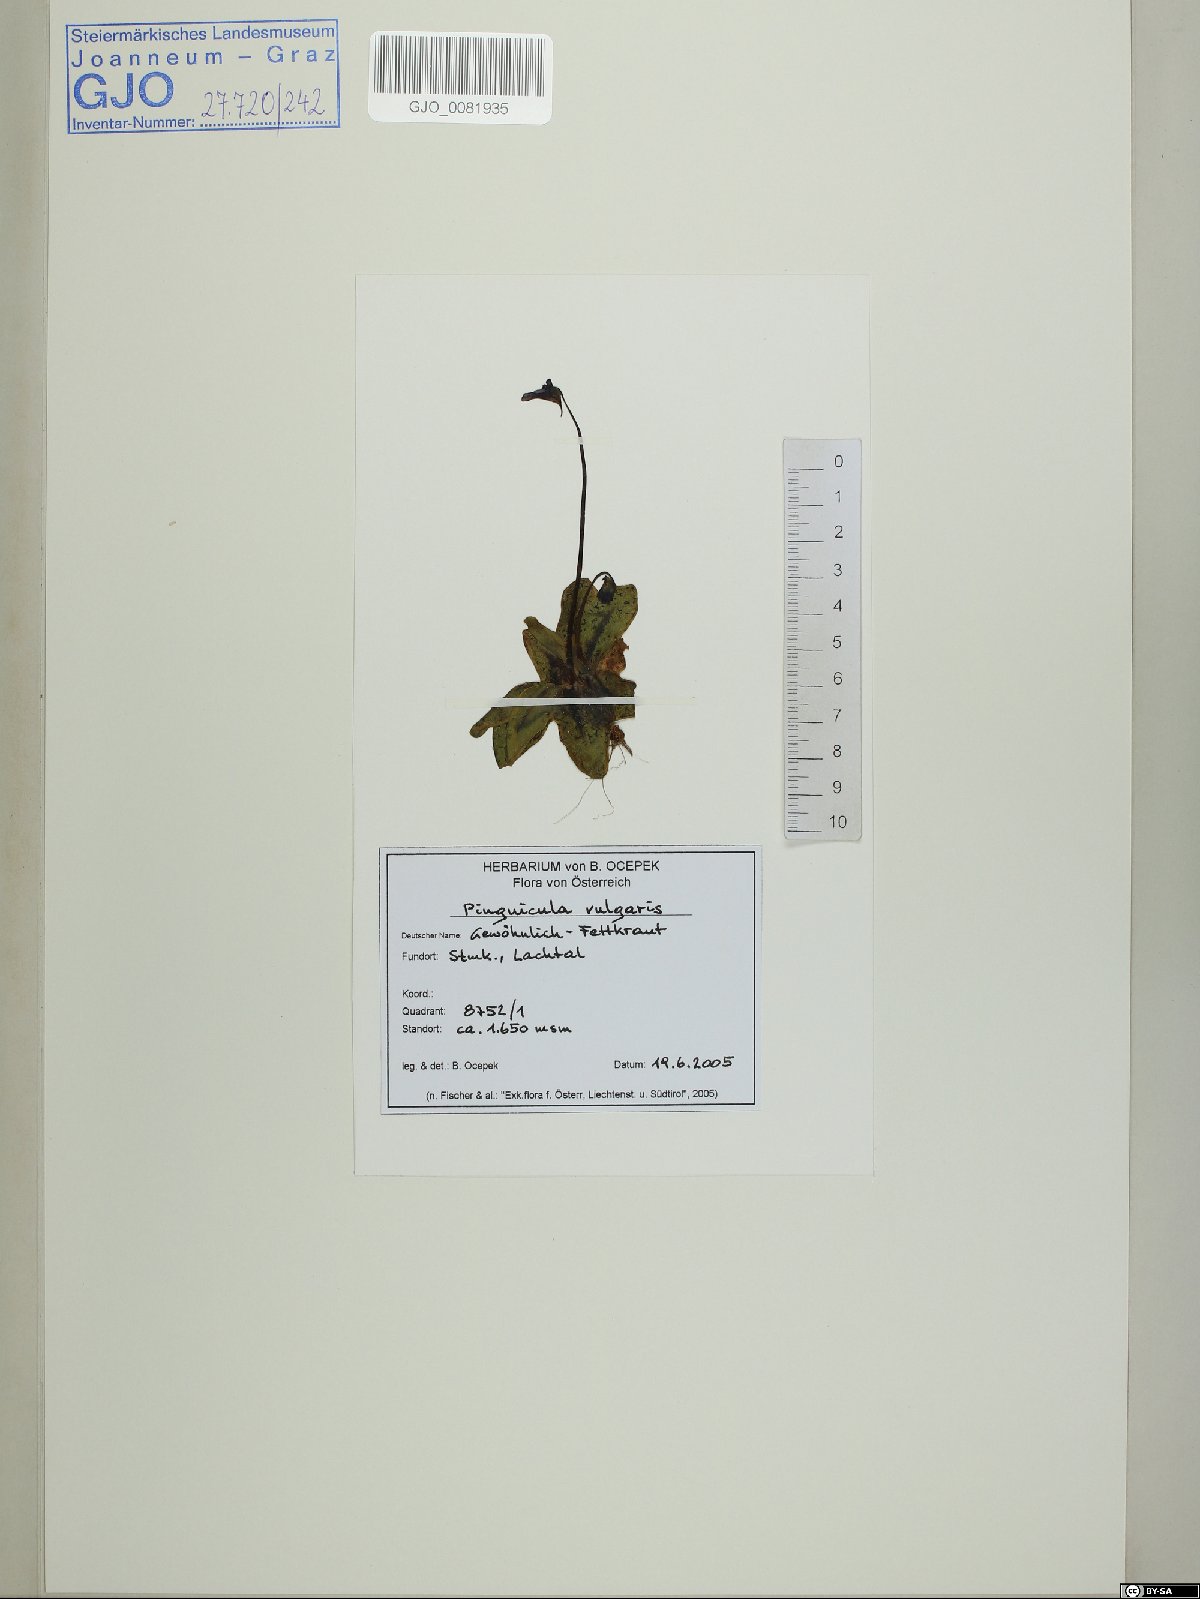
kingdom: Plantae
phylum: Tracheophyta
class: Magnoliopsida
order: Lamiales
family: Lentibulariaceae
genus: Pinguicula
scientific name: Pinguicula vulgaris
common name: Common butterwort
